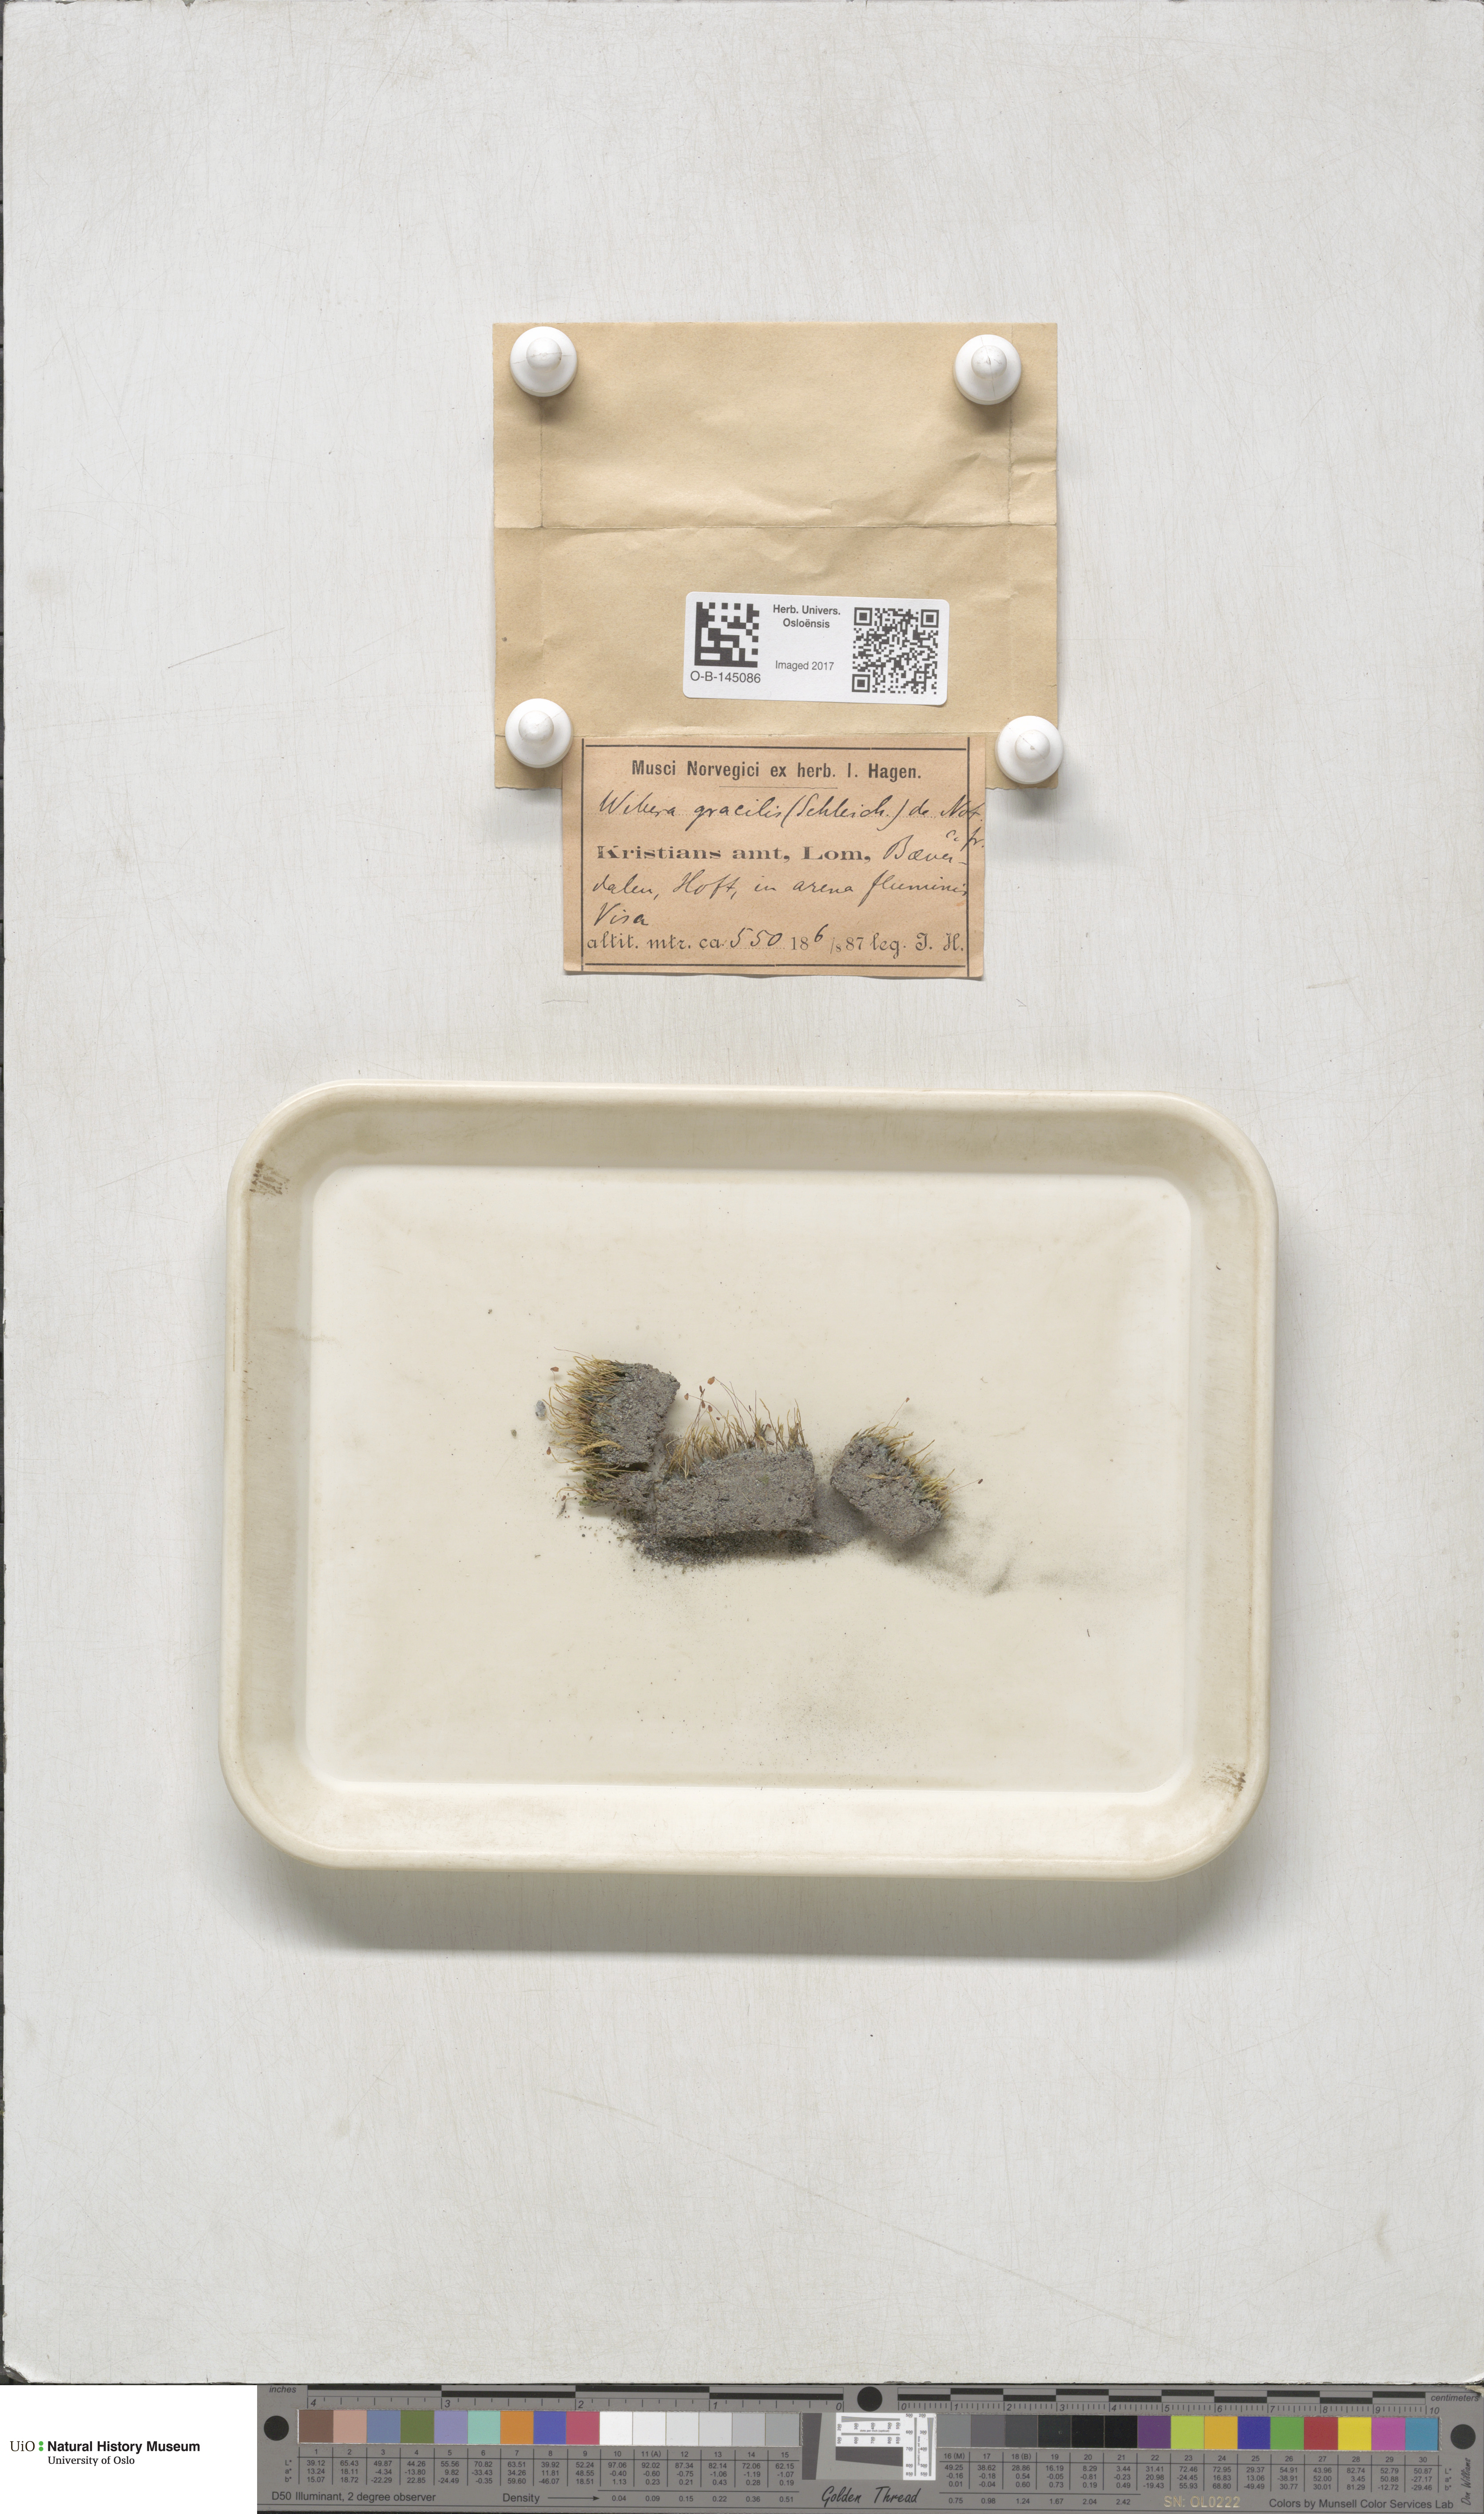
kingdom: Plantae
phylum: Bryophyta
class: Bryopsida
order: Bryales
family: Mniaceae
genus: Pohlia
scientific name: Pohlia filum
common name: Slender nodding moss
